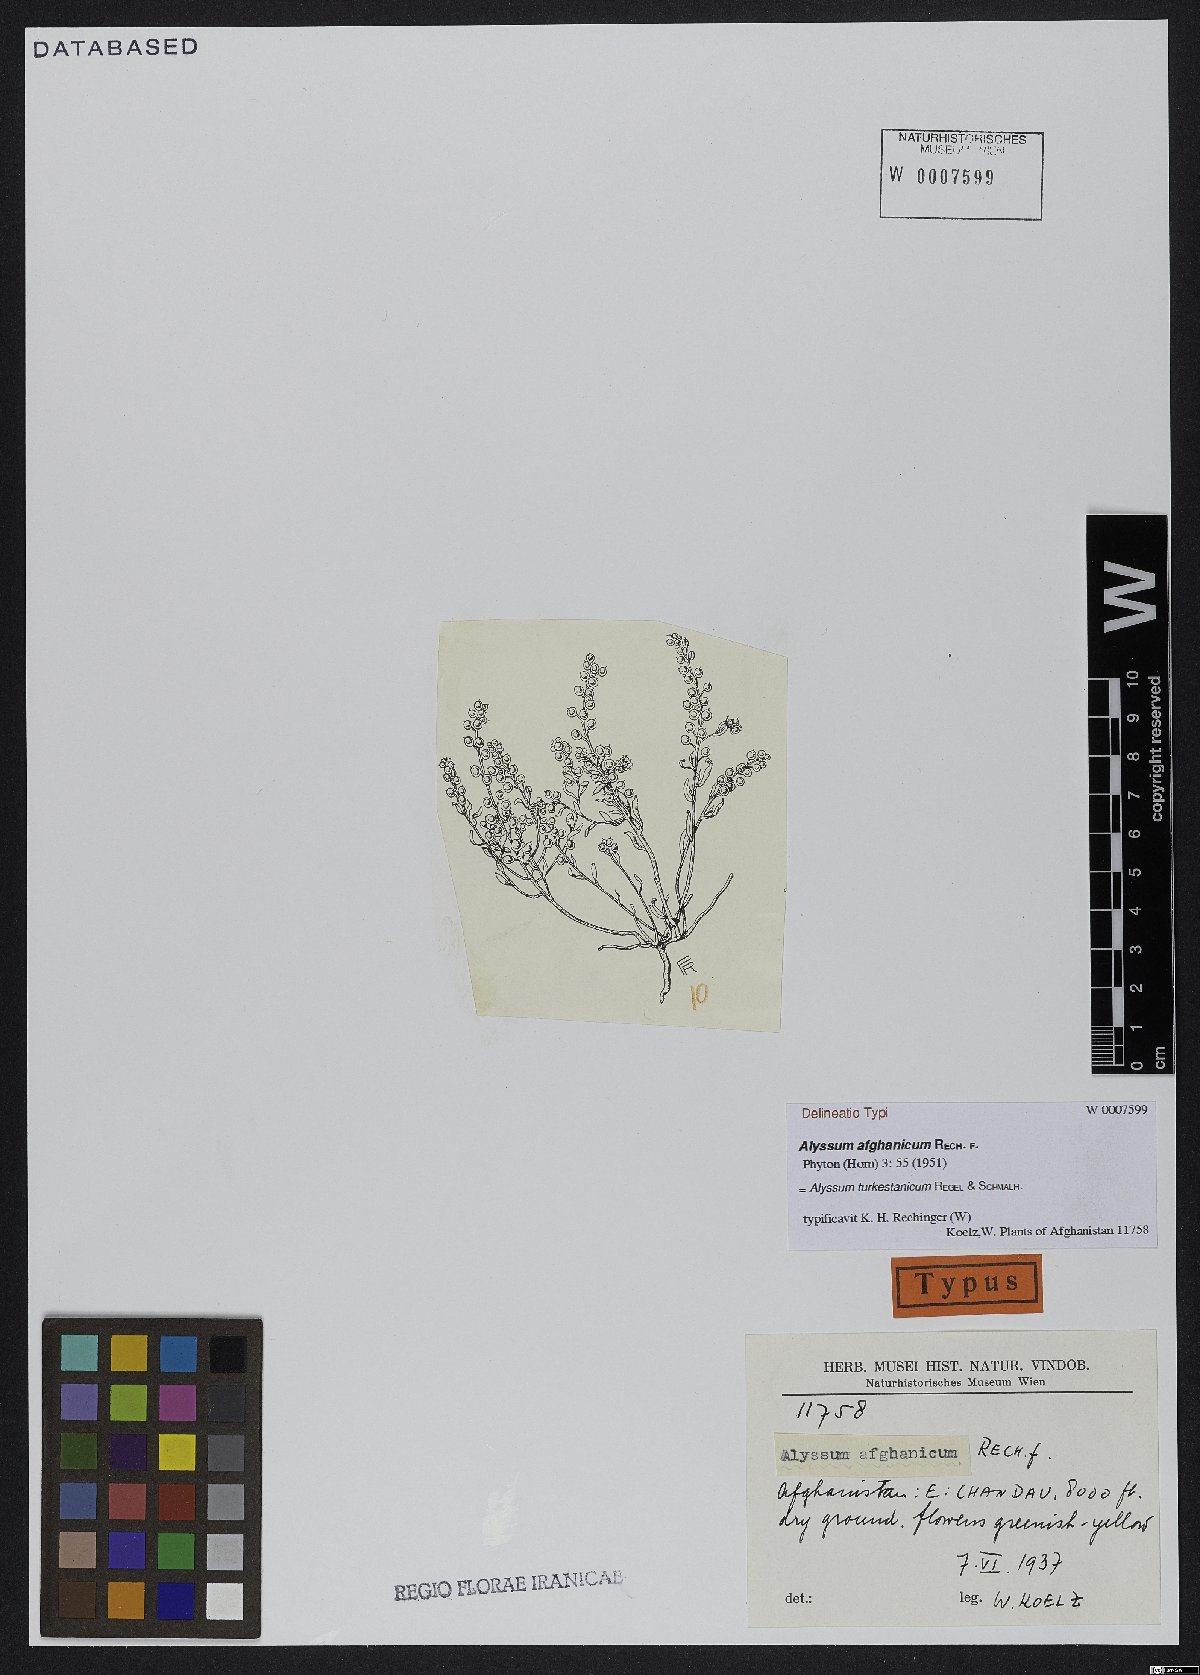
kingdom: Plantae
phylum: Tracheophyta
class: Magnoliopsida
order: Brassicales
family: Brassicaceae
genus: Alyssum
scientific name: Alyssum turkestanicum
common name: Desert alyssum
